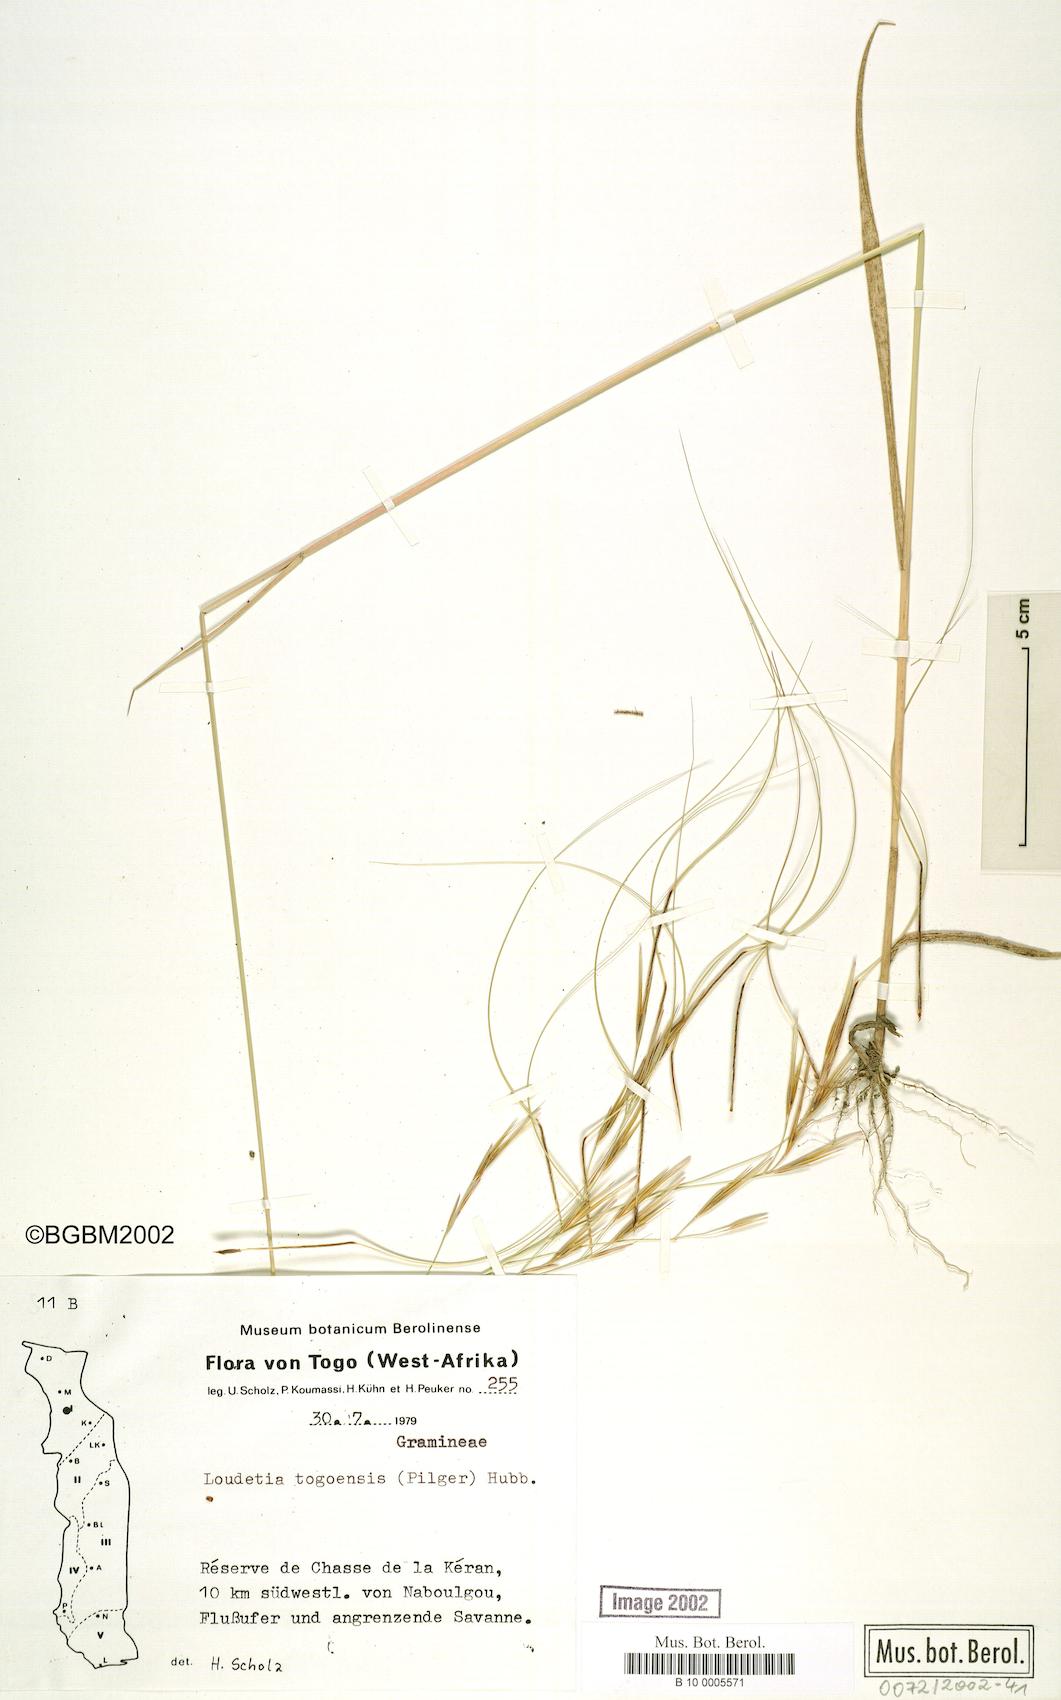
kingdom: Plantae
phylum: Tracheophyta
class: Liliopsida
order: Poales
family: Poaceae
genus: Loudetia
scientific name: Loudetia togoensis
